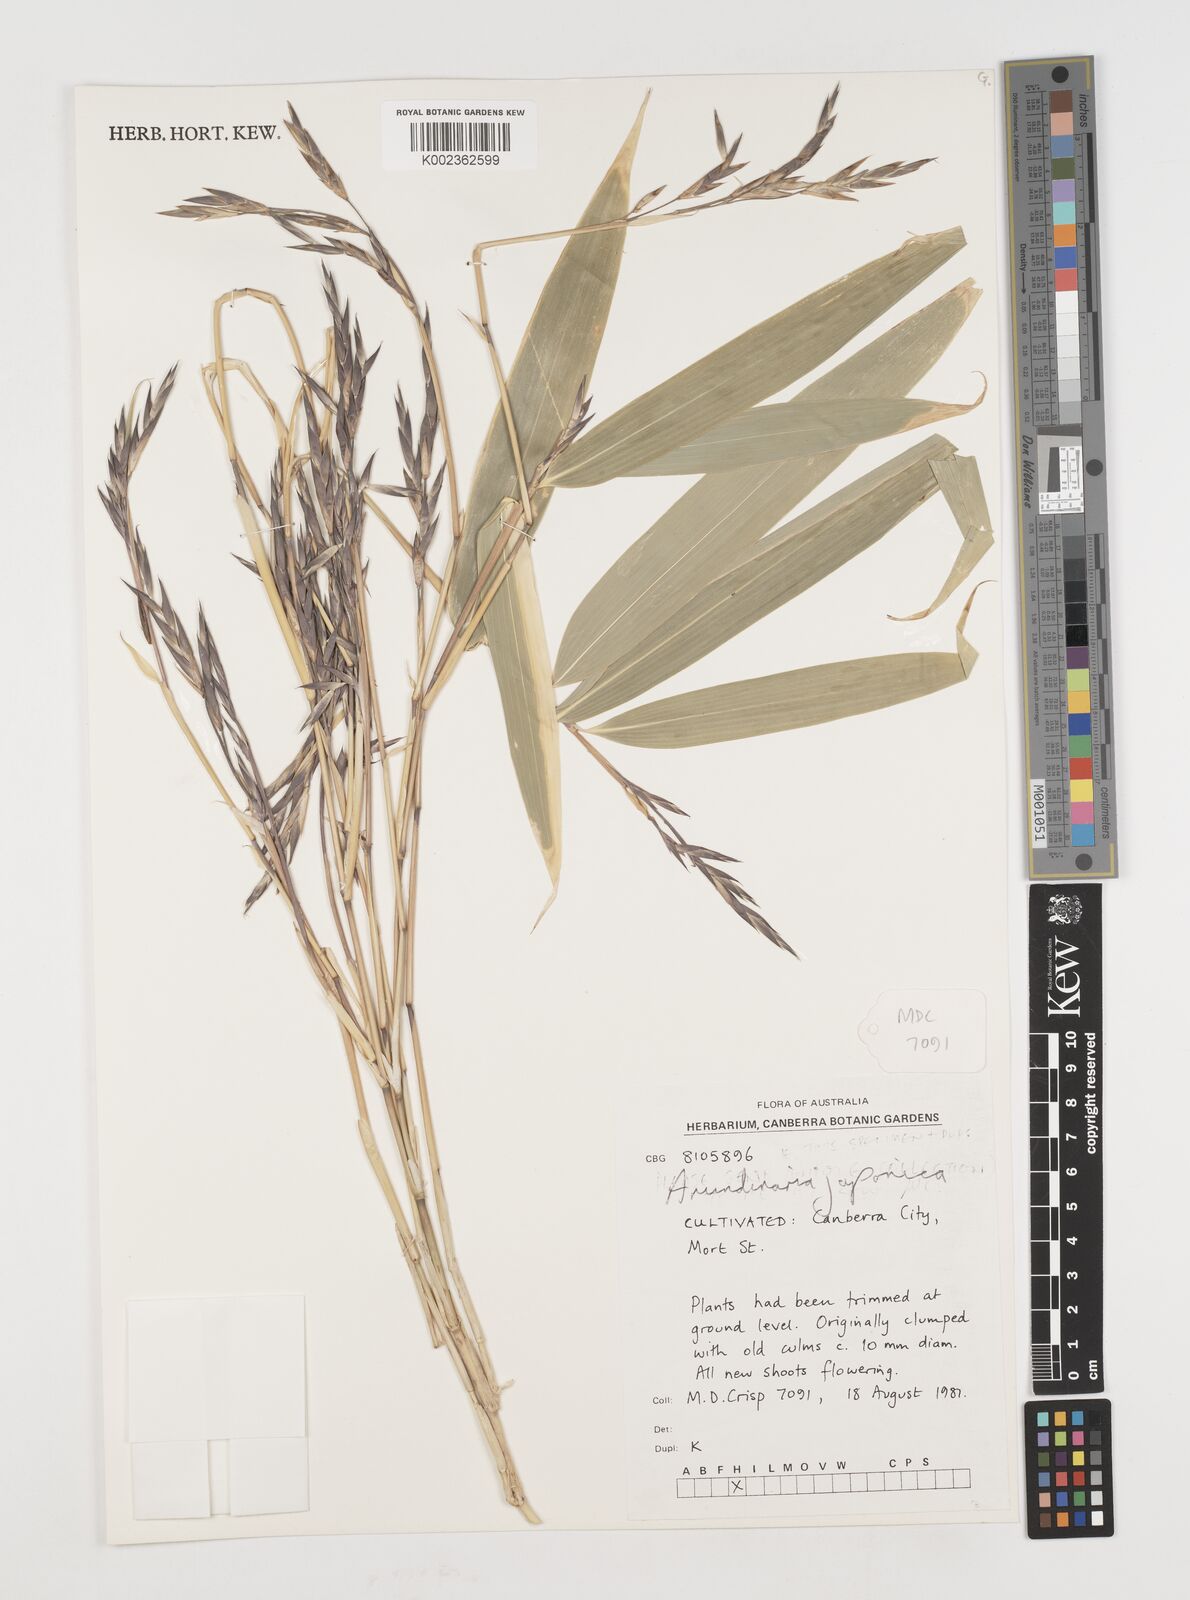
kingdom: Plantae
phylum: Tracheophyta
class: Liliopsida
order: Poales
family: Poaceae
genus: Pseudosasa
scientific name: Pseudosasa japonica
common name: Arrow bamboo
